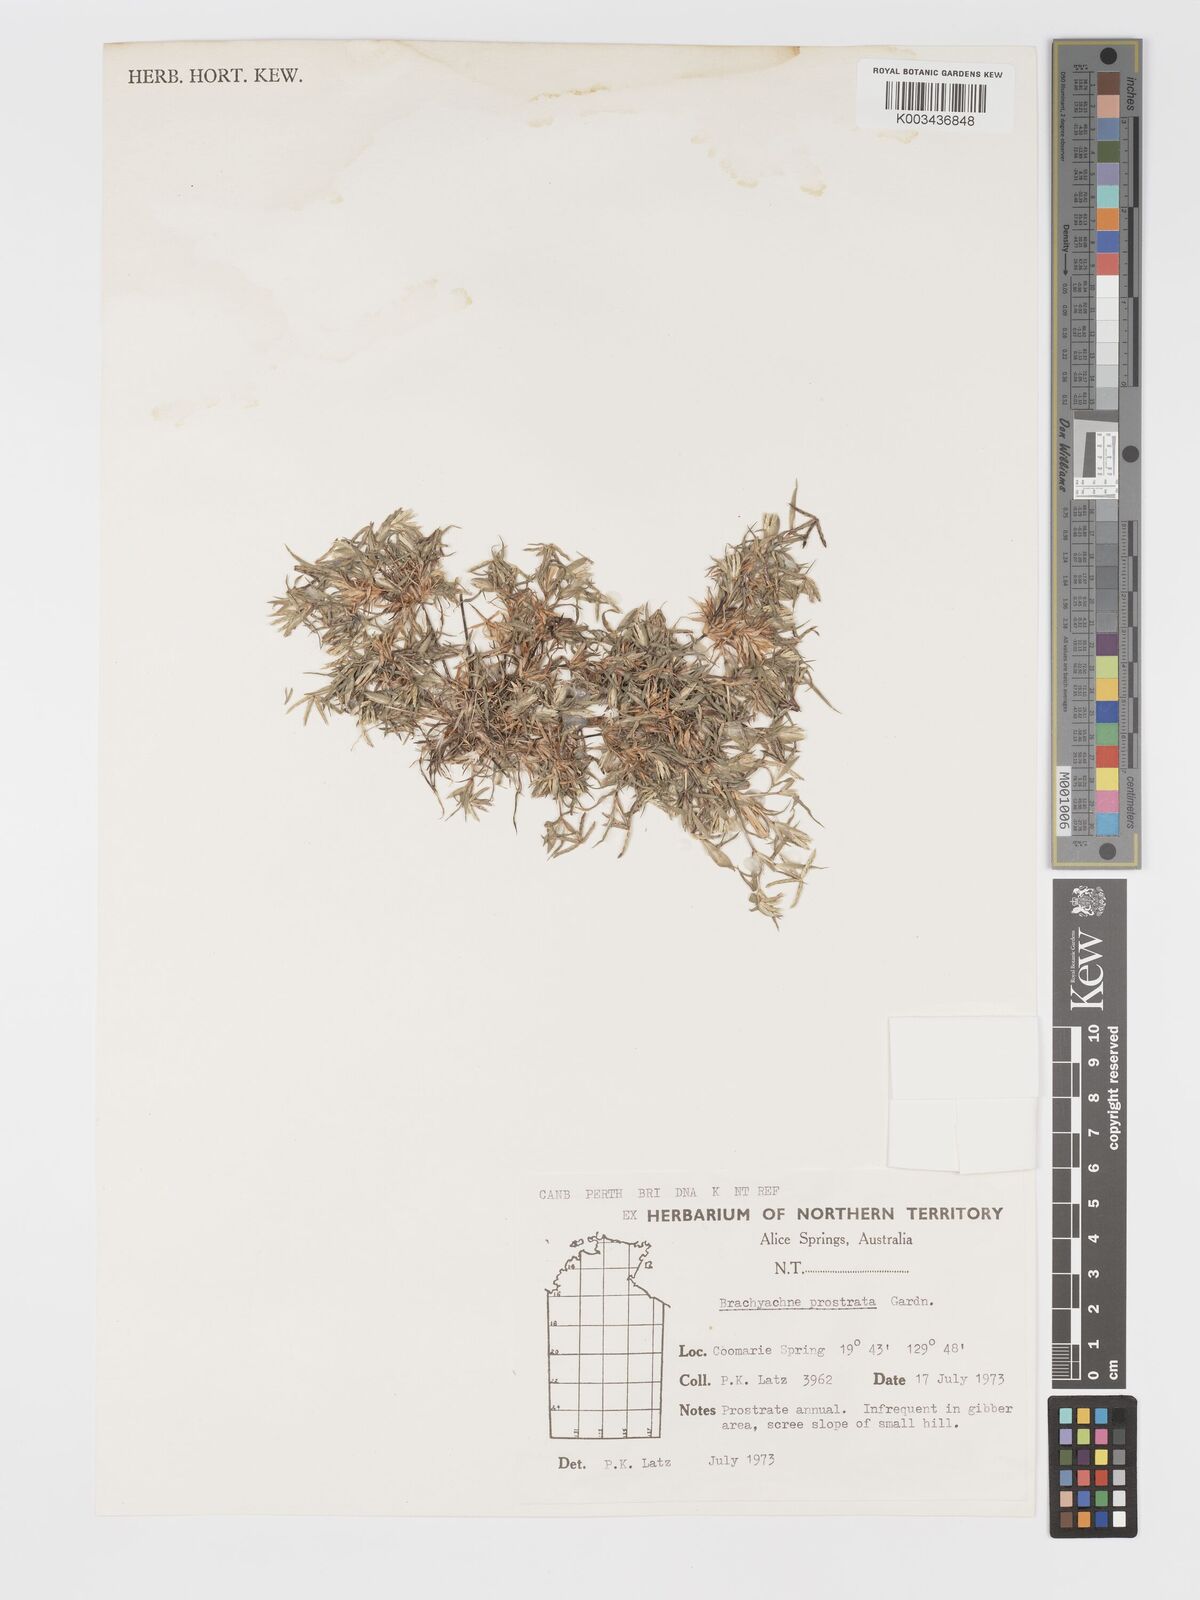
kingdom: Plantae
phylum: Tracheophyta
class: Liliopsida
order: Poales
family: Poaceae
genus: Cynodon
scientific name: Cynodon prostratus
